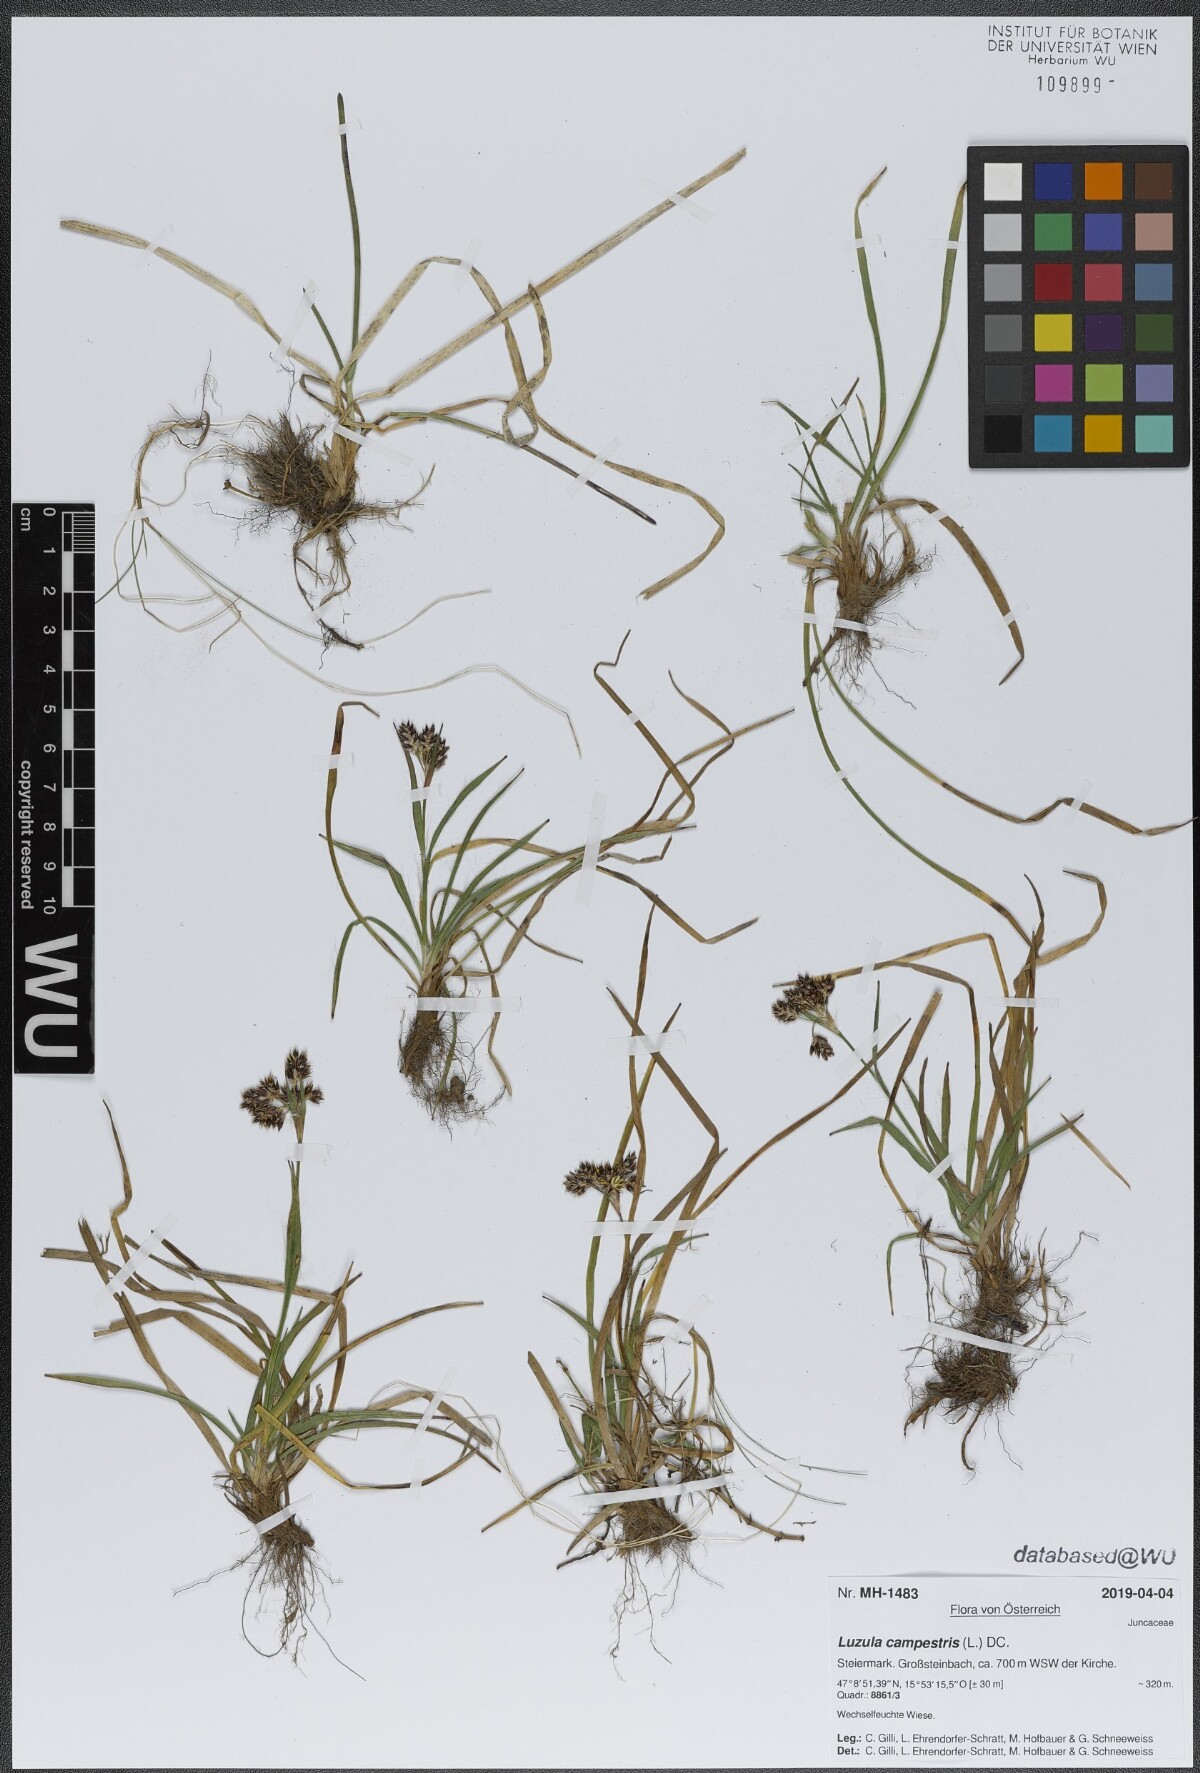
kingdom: Plantae
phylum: Tracheophyta
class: Liliopsida
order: Poales
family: Juncaceae
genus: Luzula
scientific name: Luzula campestris
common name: Field wood-rush
